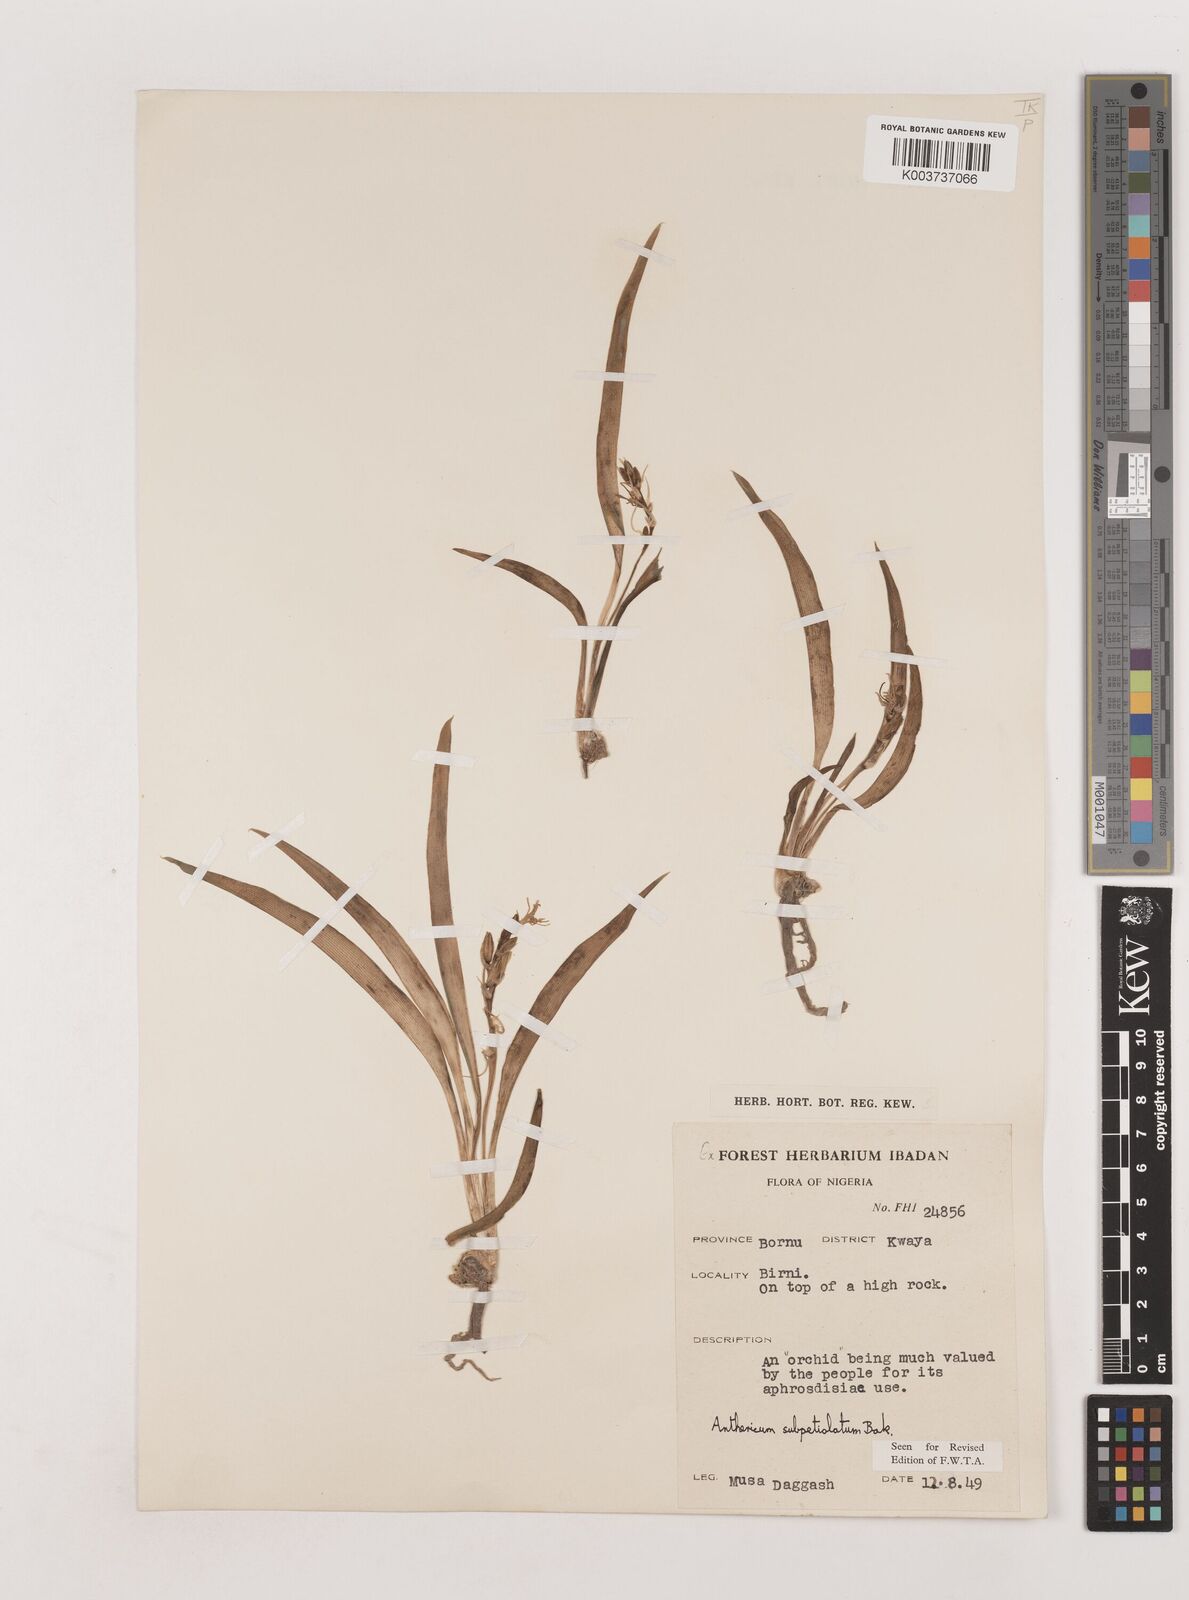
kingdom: Plantae
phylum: Tracheophyta
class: Liliopsida
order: Asparagales
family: Asparagaceae
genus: Chlorophytum
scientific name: Chlorophytum subpetiolatum
